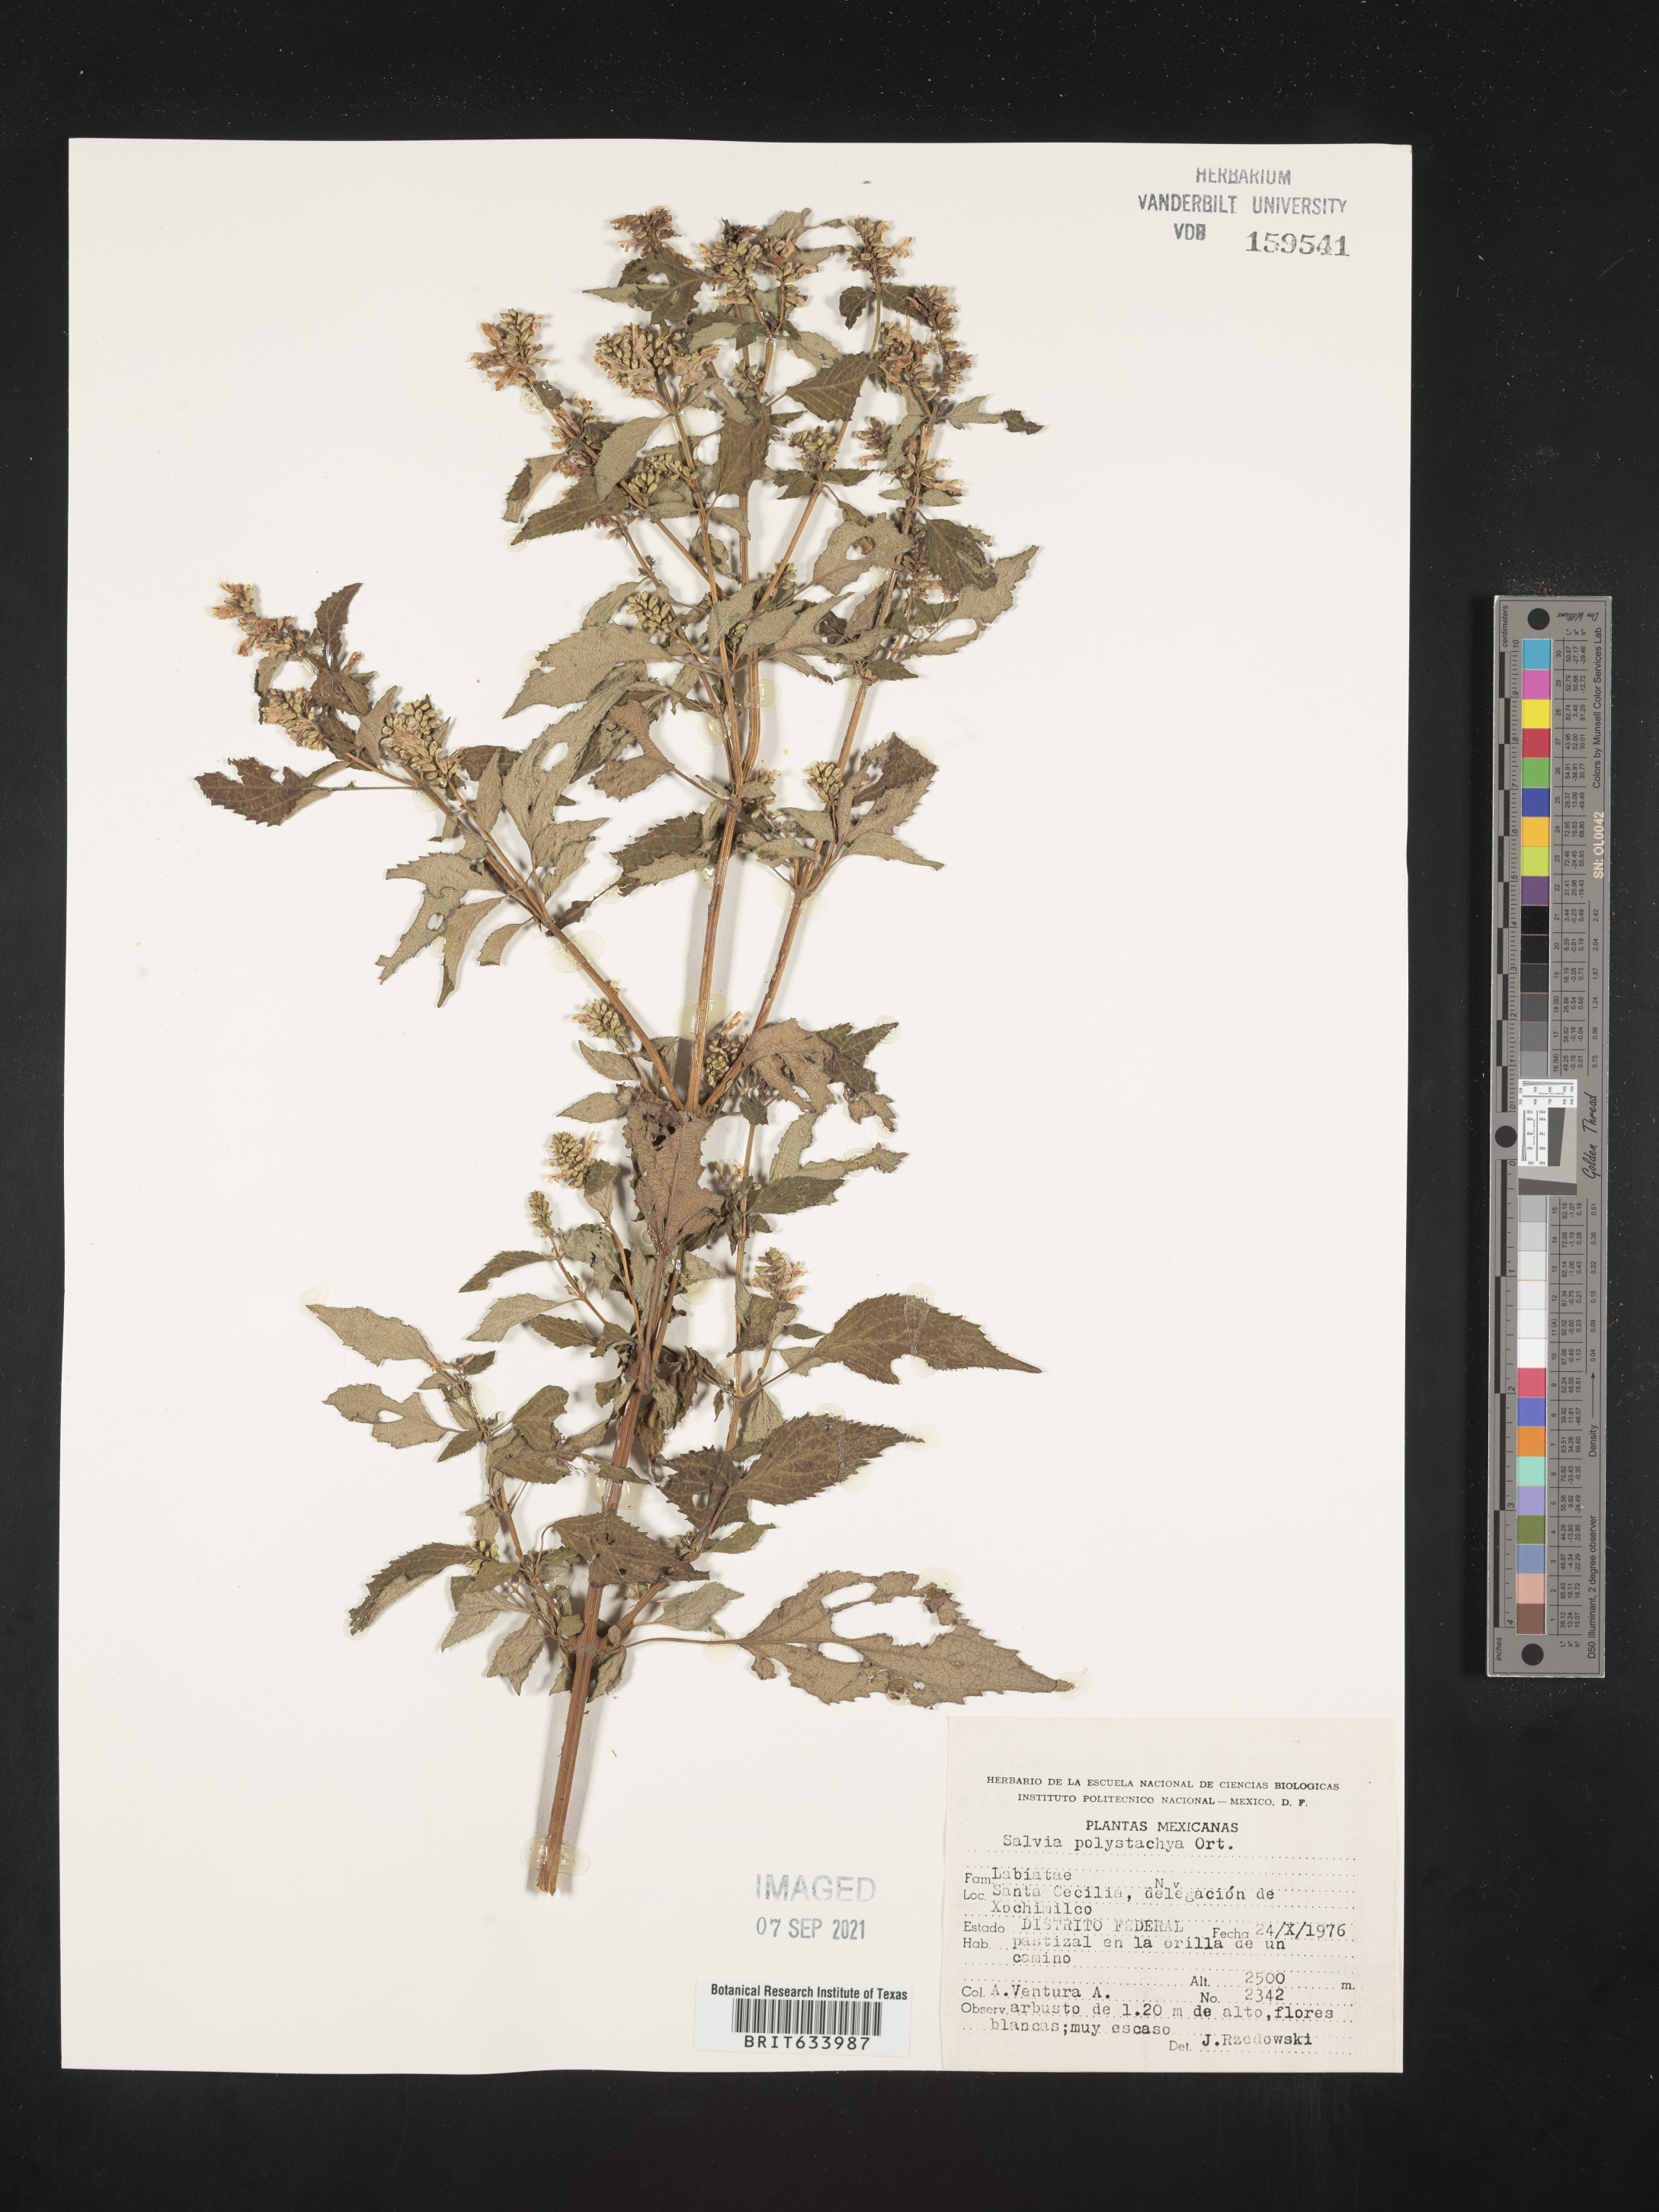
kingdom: Plantae
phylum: Tracheophyta
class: Magnoliopsida
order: Lamiales
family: Lamiaceae
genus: Salvia
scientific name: Salvia
